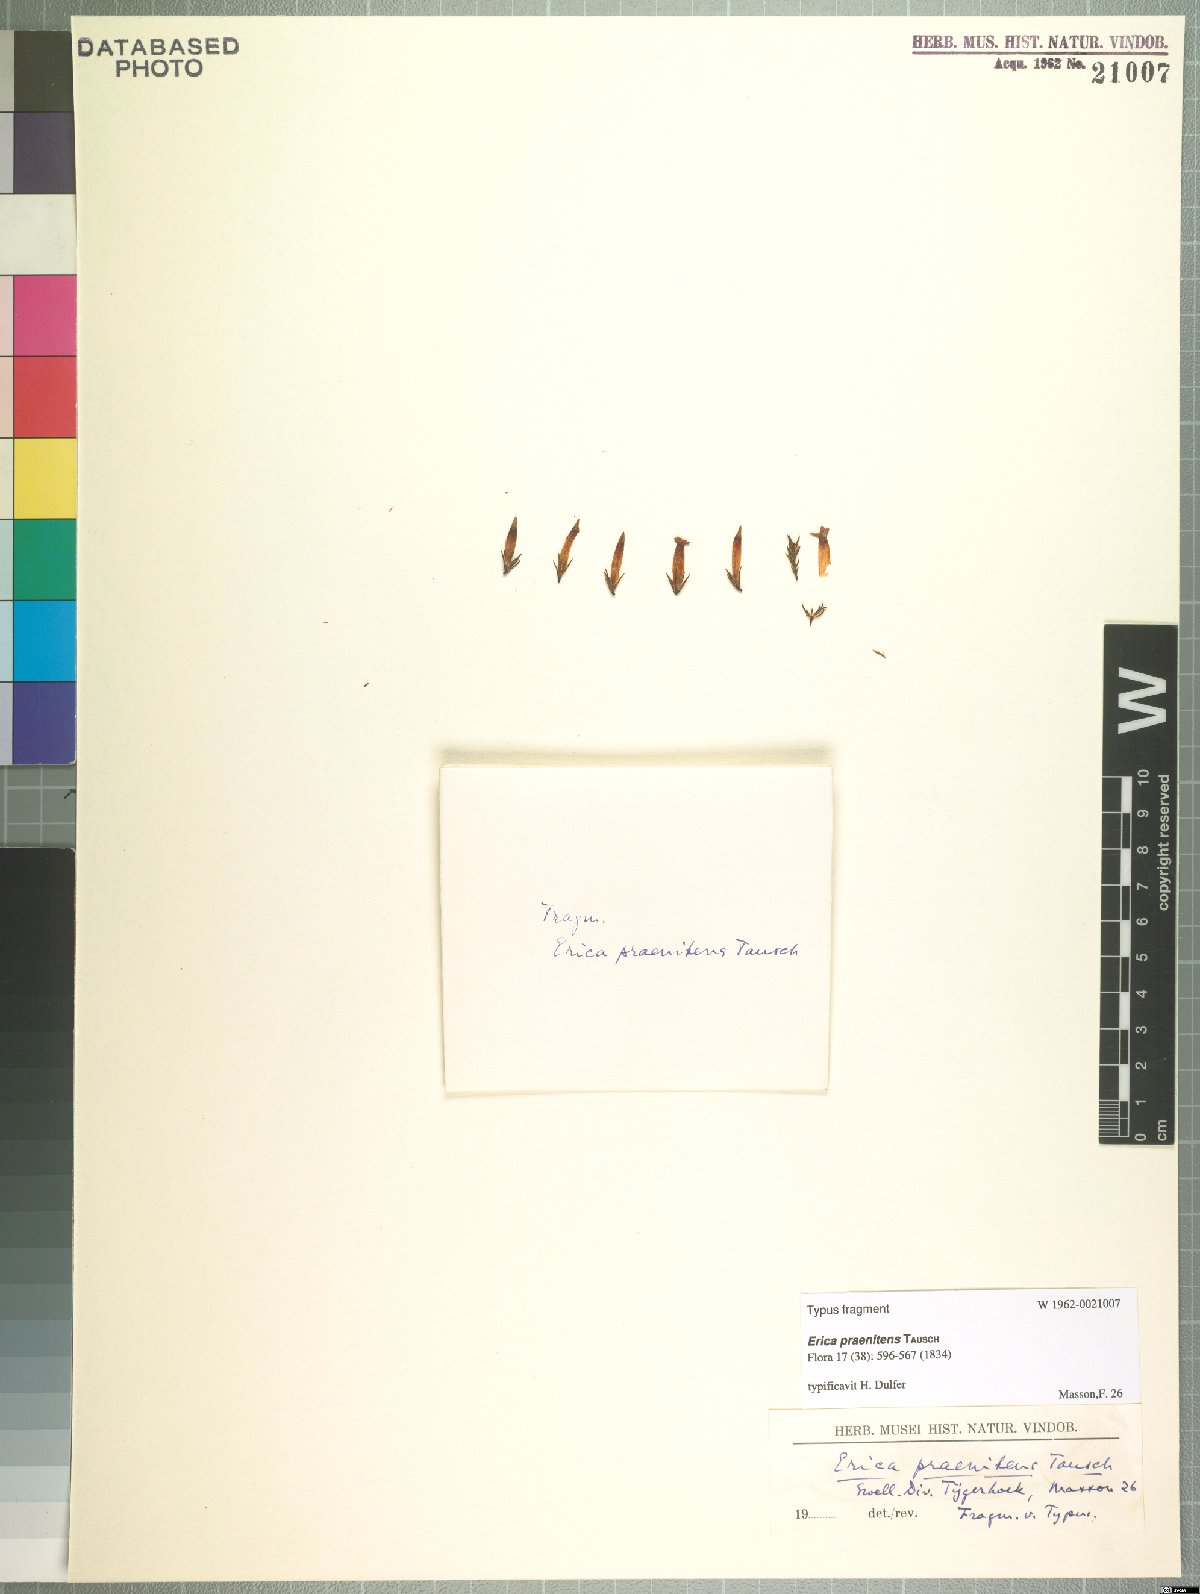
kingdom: Plantae
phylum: Tracheophyta
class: Magnoliopsida
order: Ericales
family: Ericaceae
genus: Erica
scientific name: Erica praenitens
